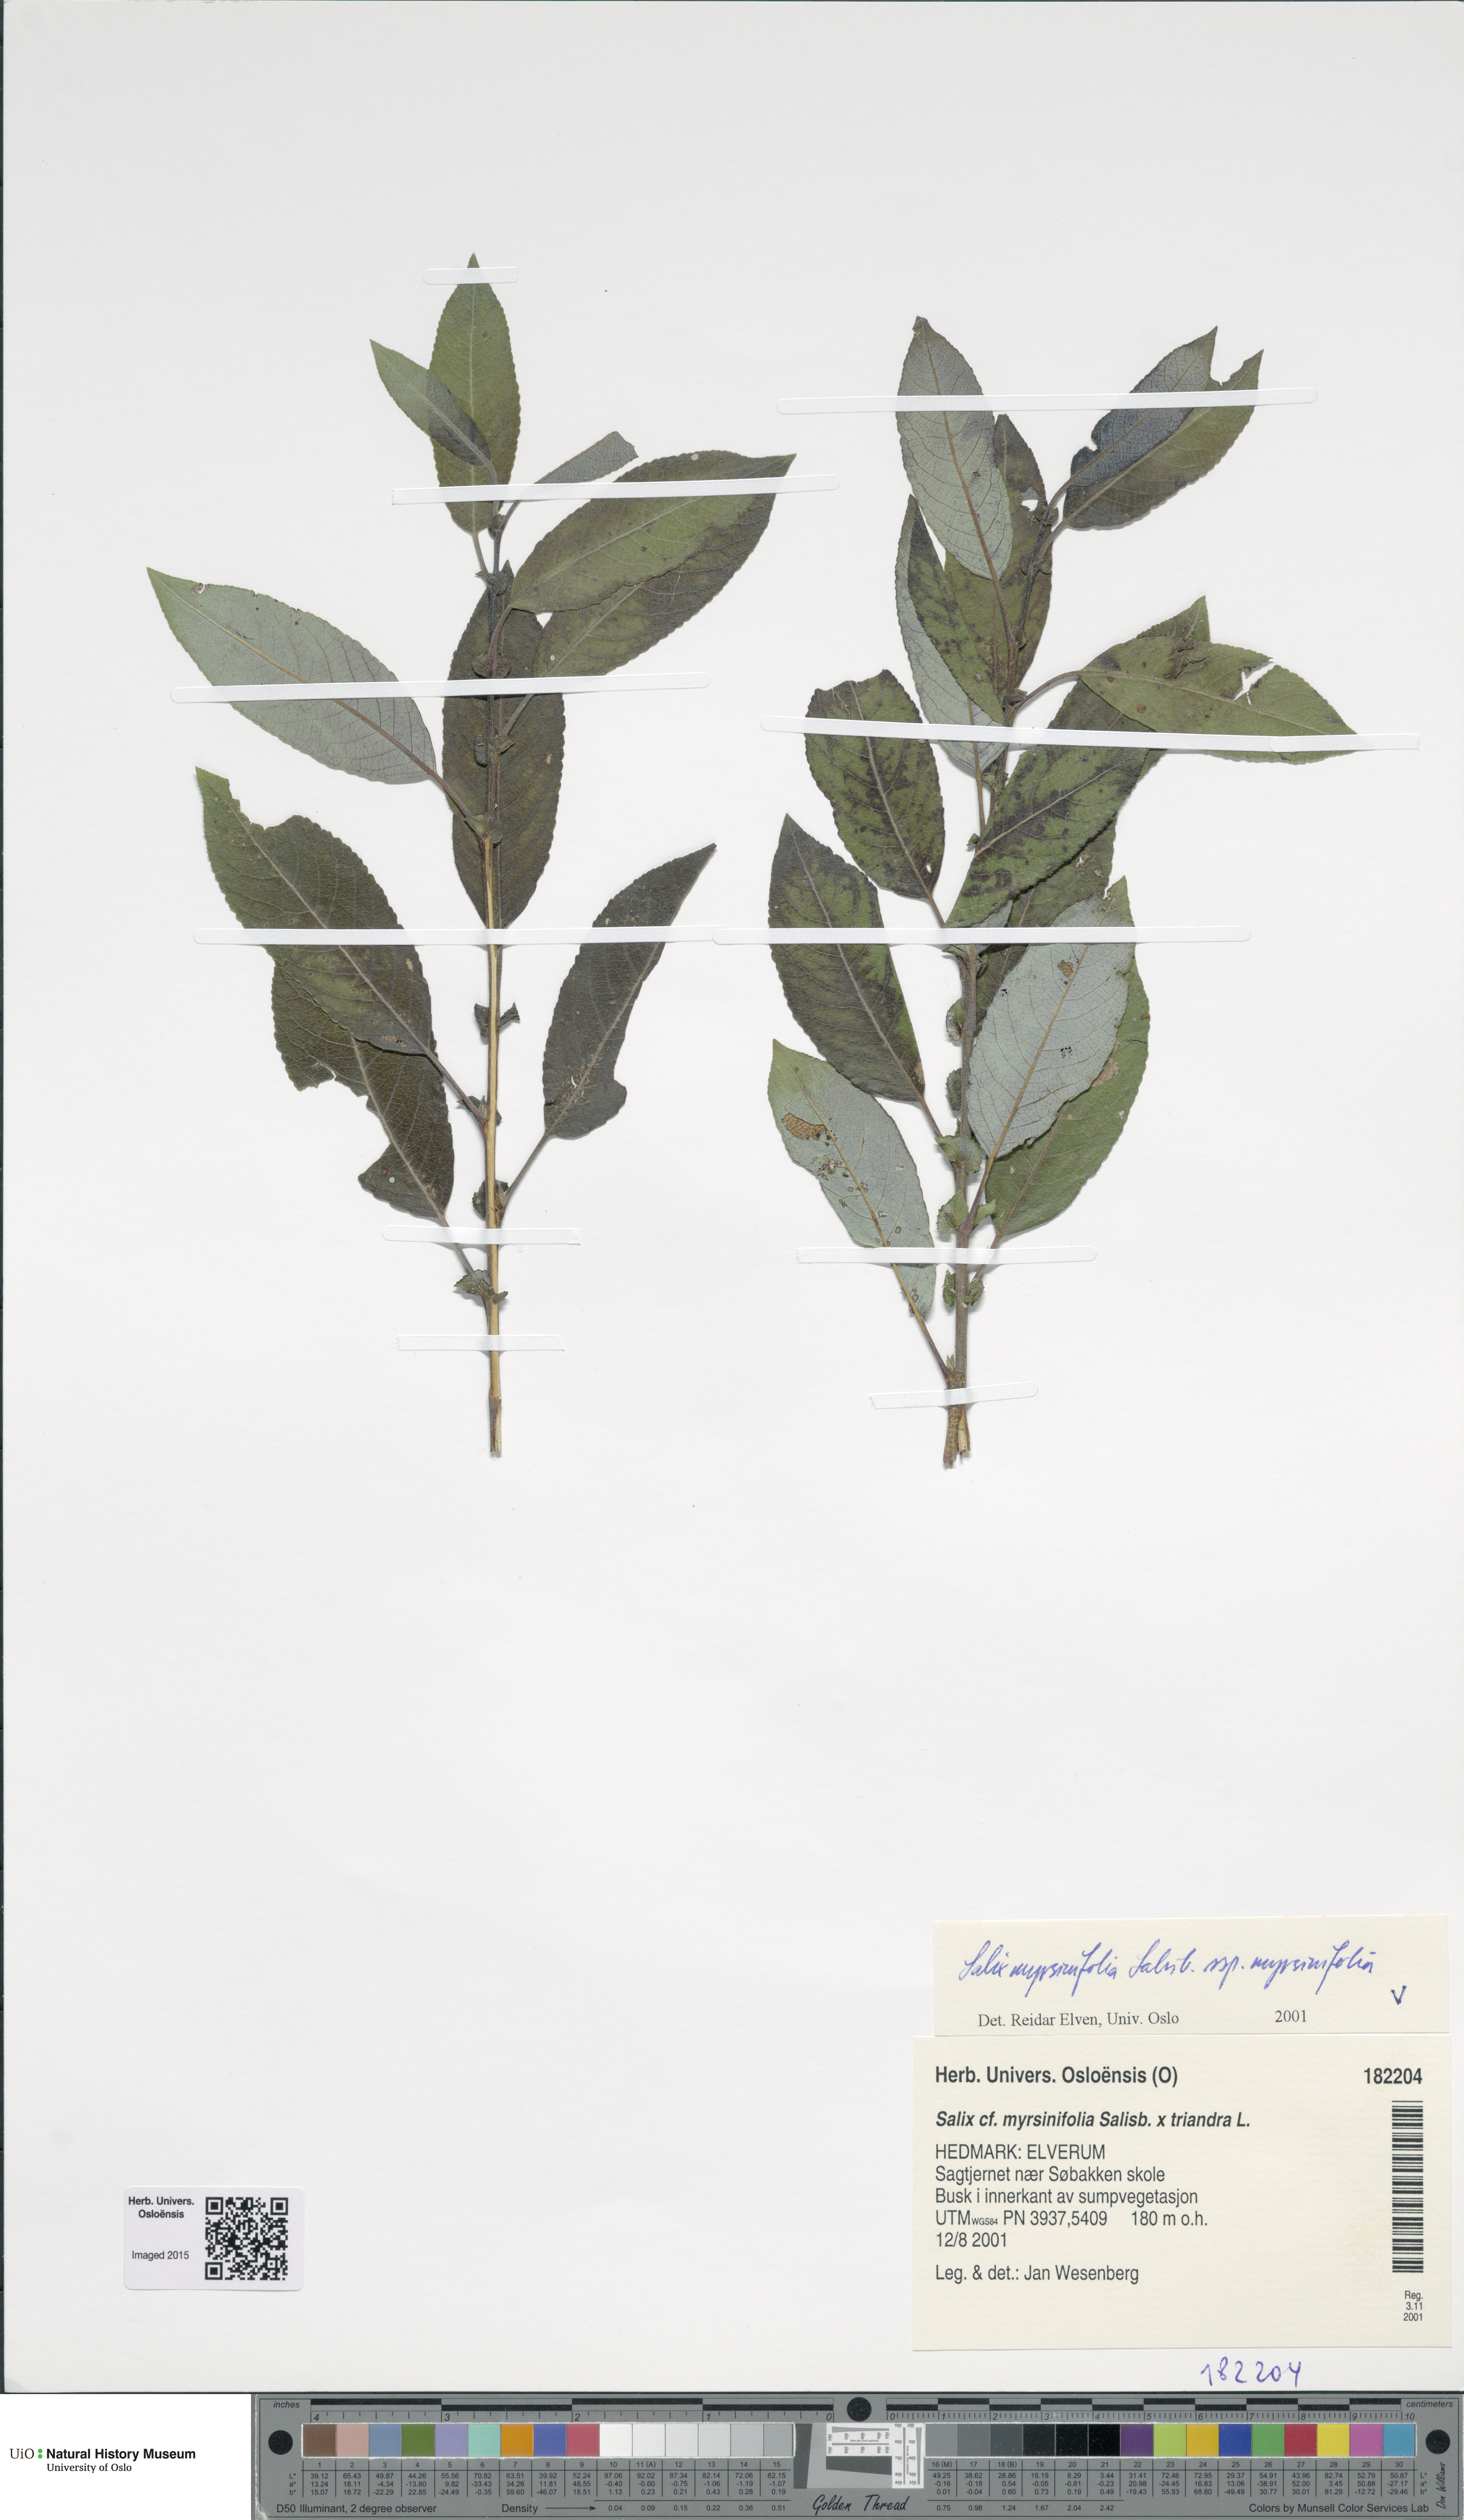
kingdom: Plantae
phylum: Tracheophyta
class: Magnoliopsida
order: Malpighiales
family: Salicaceae
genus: Salix
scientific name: Salix myrsinifolia
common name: Dark-leaved willow
